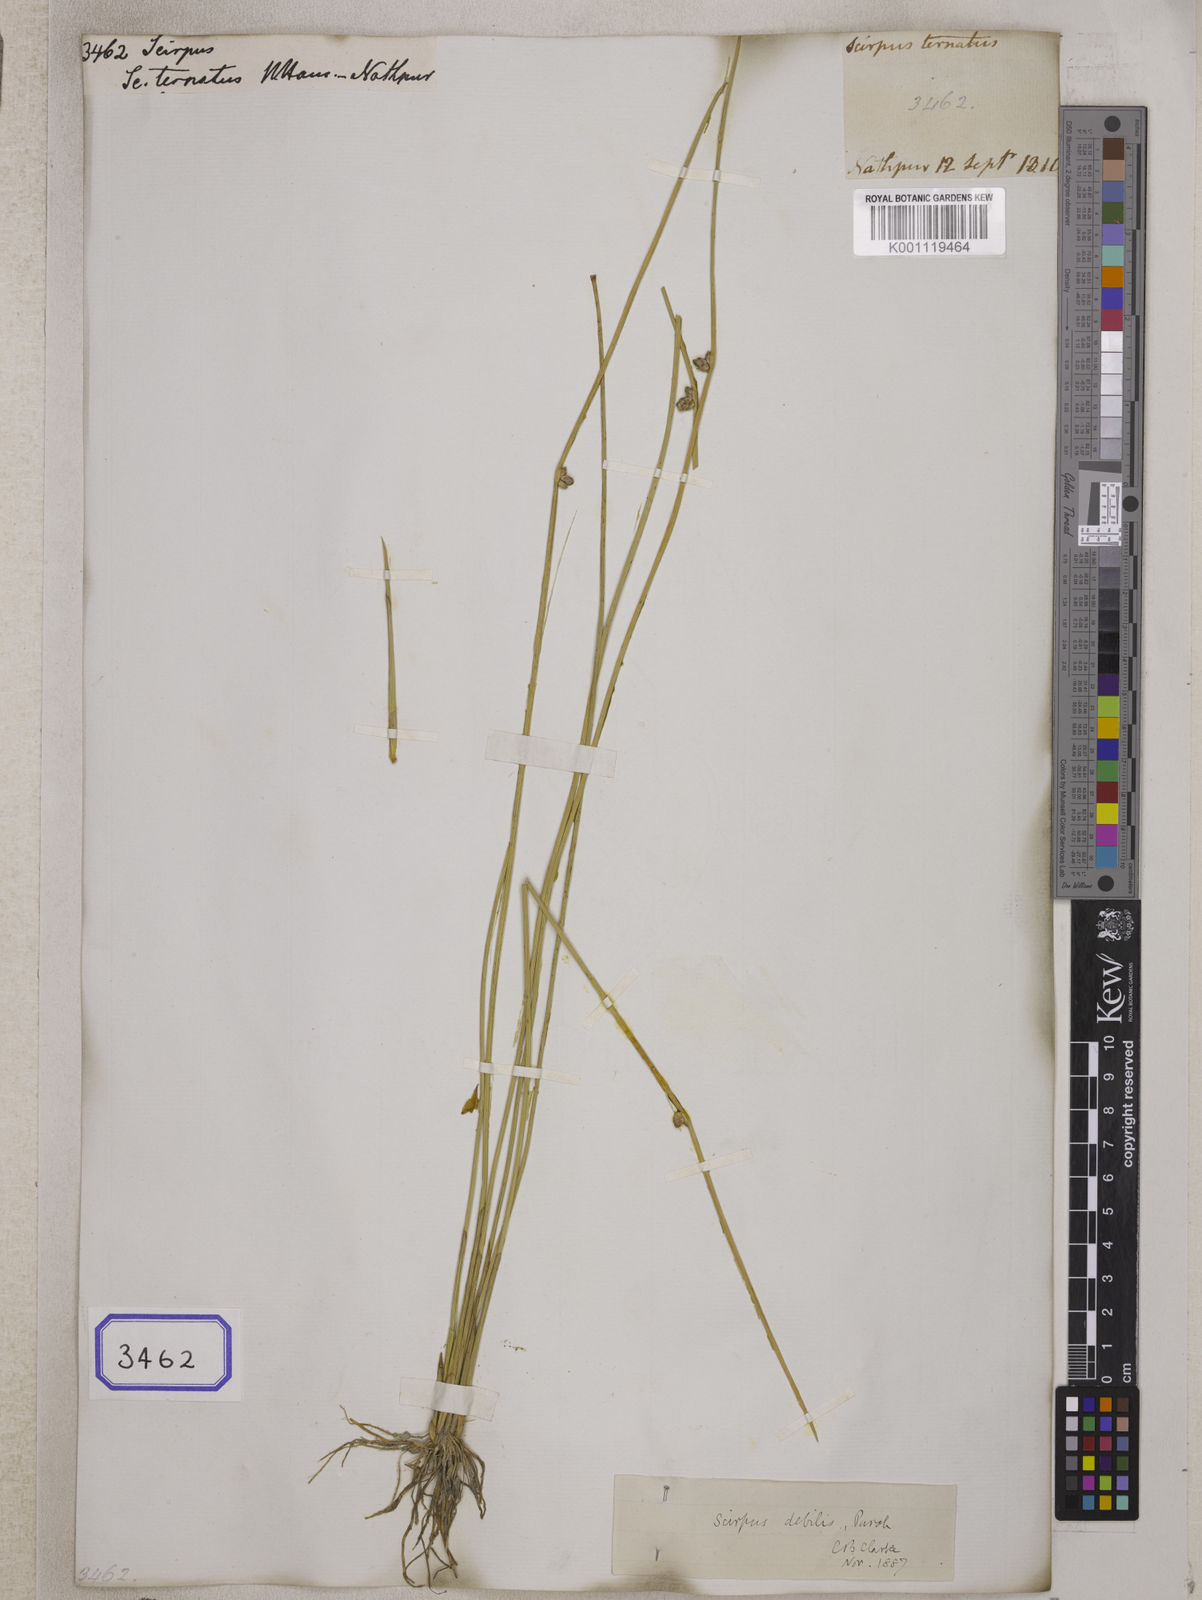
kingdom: Plantae
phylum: Tracheophyta
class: Liliopsida
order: Poales
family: Cyperaceae
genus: Scirpus
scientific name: Scirpus
